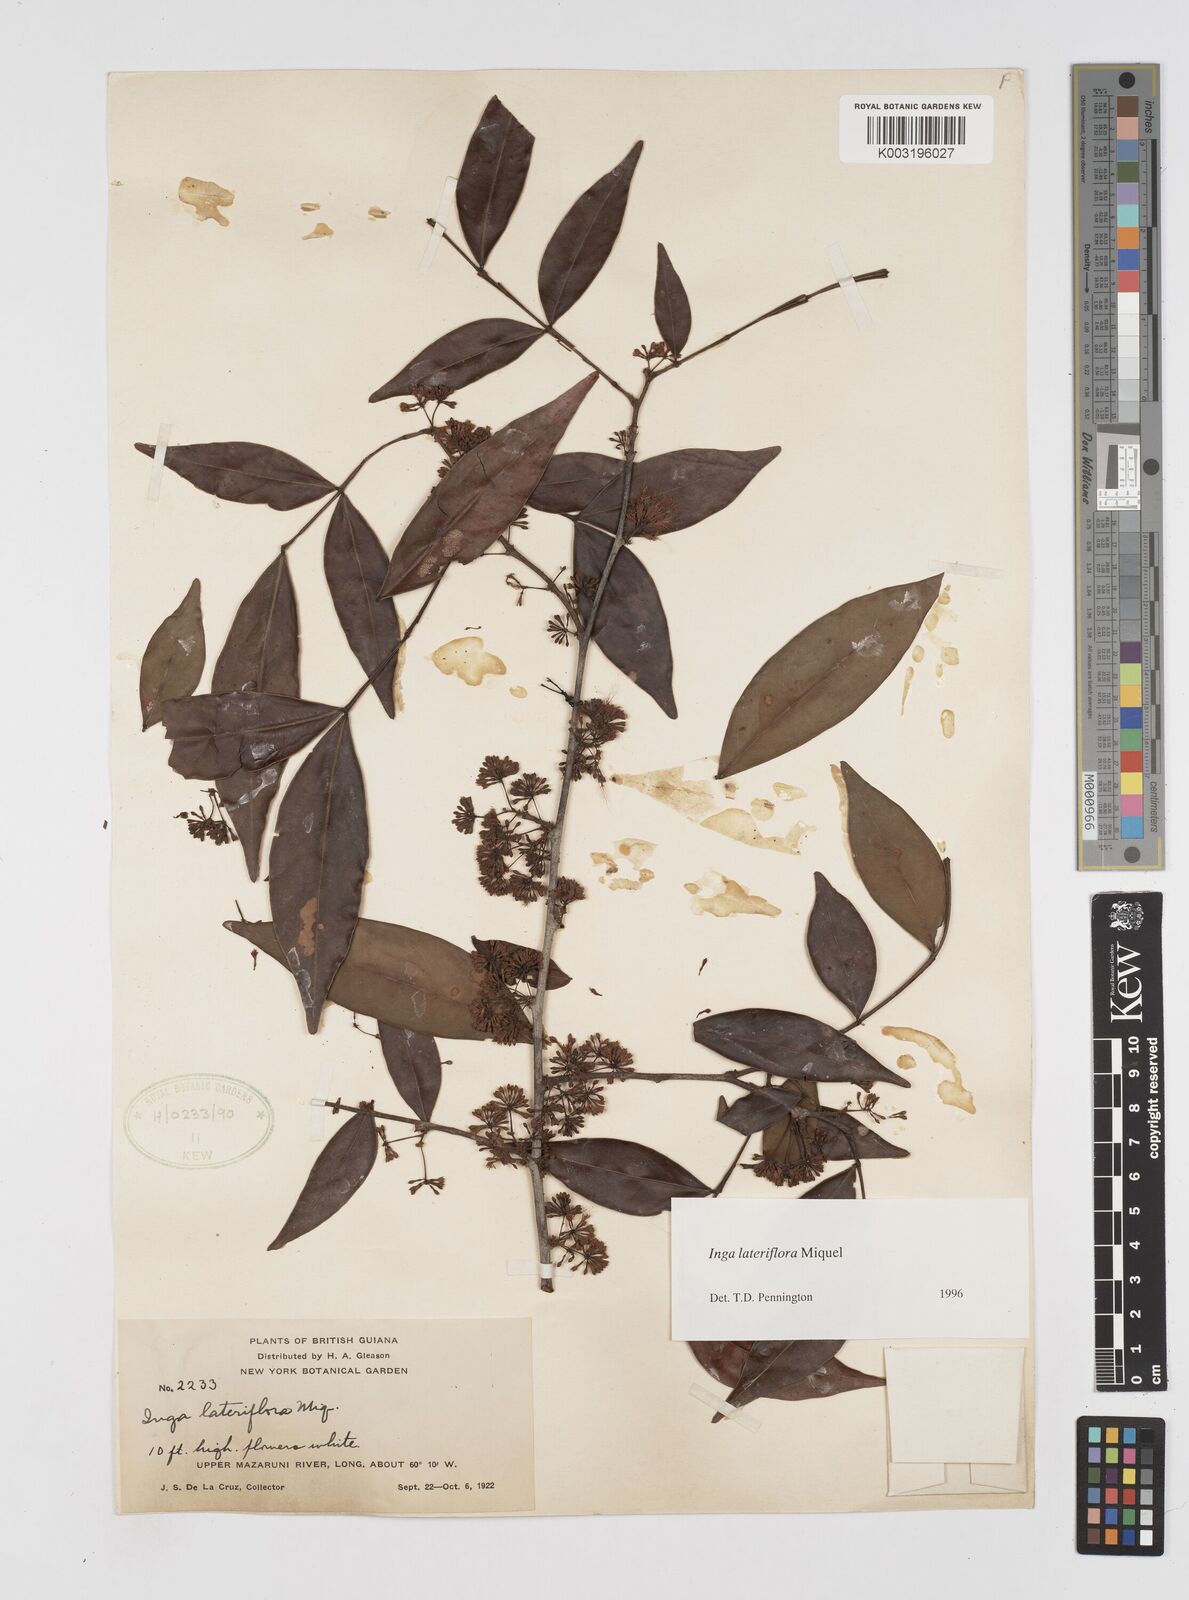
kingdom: Plantae
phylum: Tracheophyta
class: Magnoliopsida
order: Fabales
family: Fabaceae
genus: Inga
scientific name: Inga lateriflora
